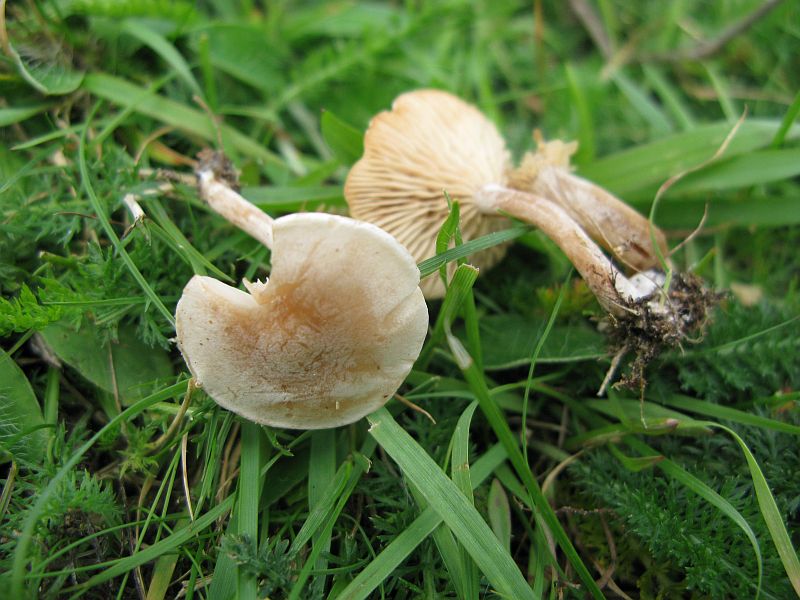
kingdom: Fungi
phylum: Basidiomycota
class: Agaricomycetes
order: Agaricales
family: Tricholomataceae
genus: Clitocybe
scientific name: Clitocybe rivulosa
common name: eng-tragthat
